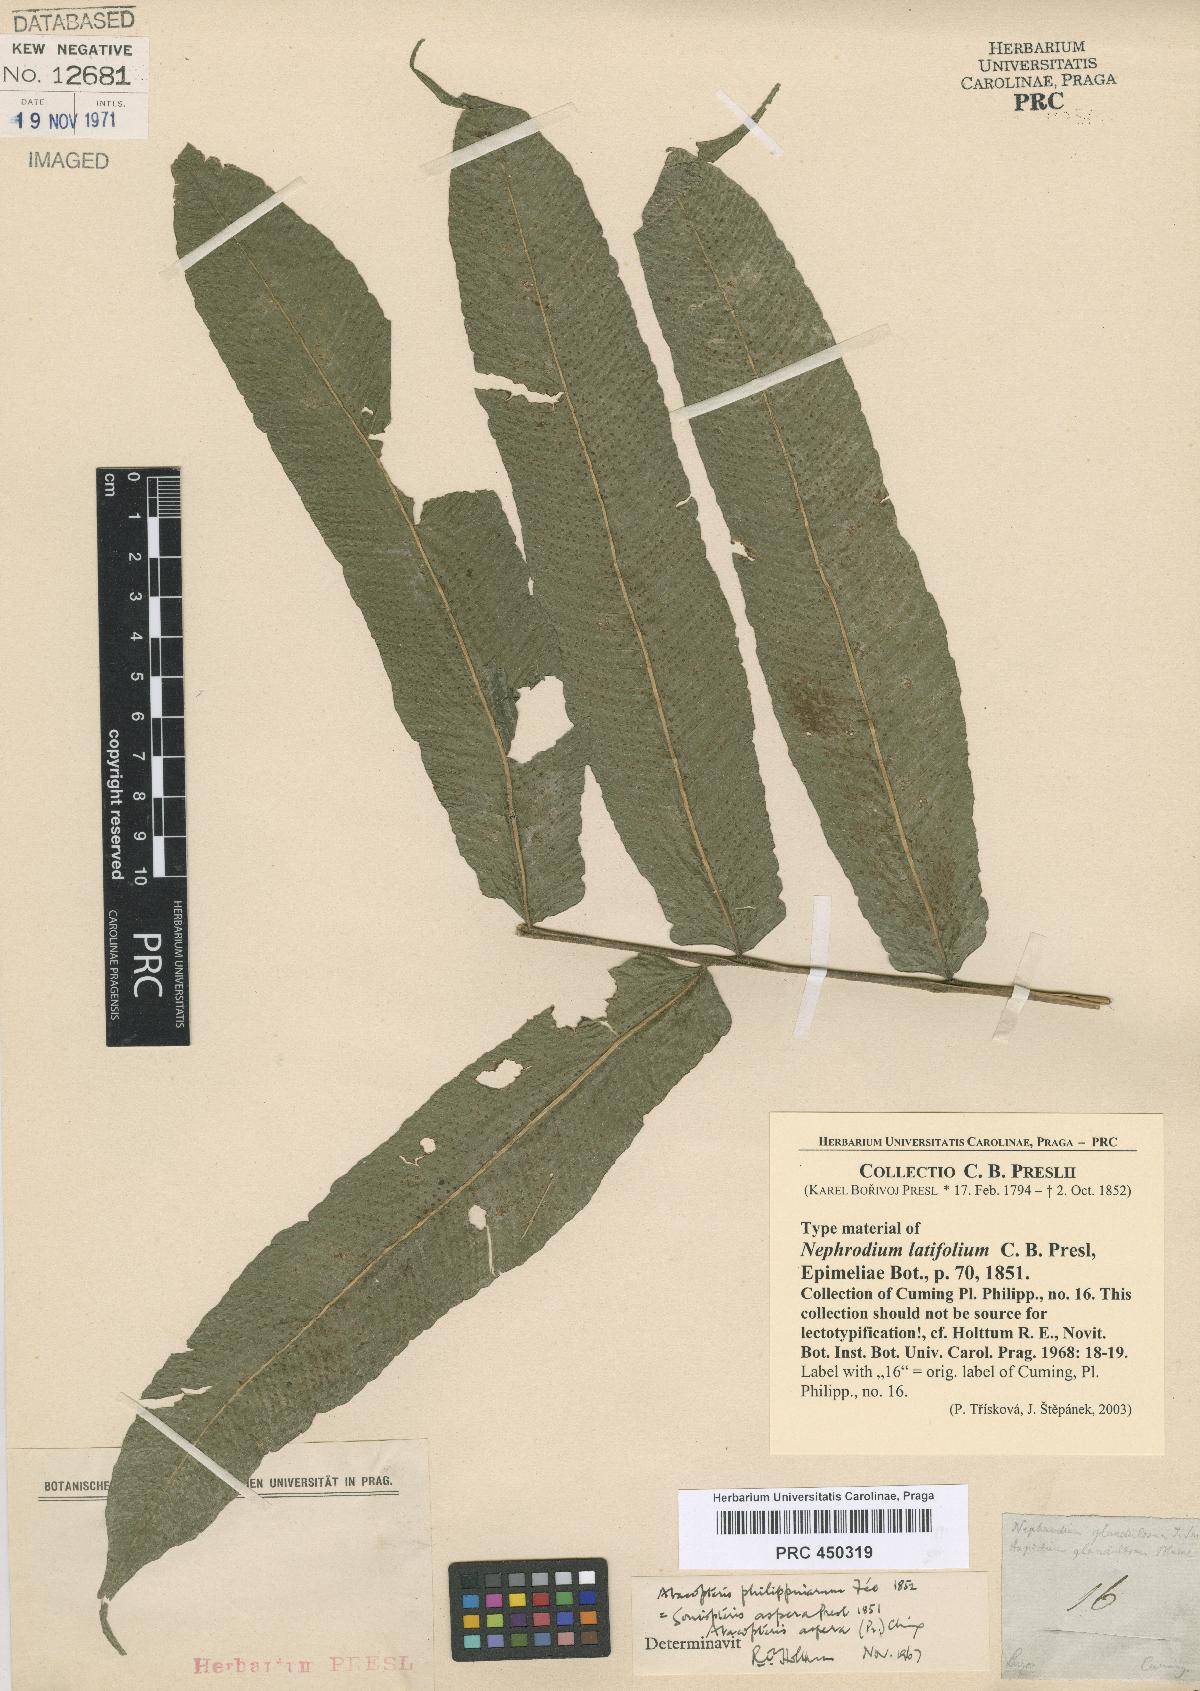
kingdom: Plantae
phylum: Tracheophyta
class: Polypodiopsida
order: Polypodiales
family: Thelypteridaceae
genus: Pronephrium
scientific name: Pronephrium menisciicarpon
